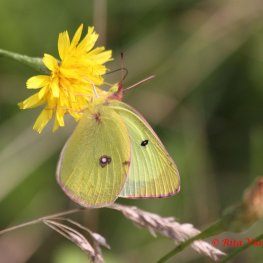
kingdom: Animalia
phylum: Arthropoda
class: Insecta
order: Lepidoptera
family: Pieridae
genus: Colias
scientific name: Colias philodice
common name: Clouded Sulphur
